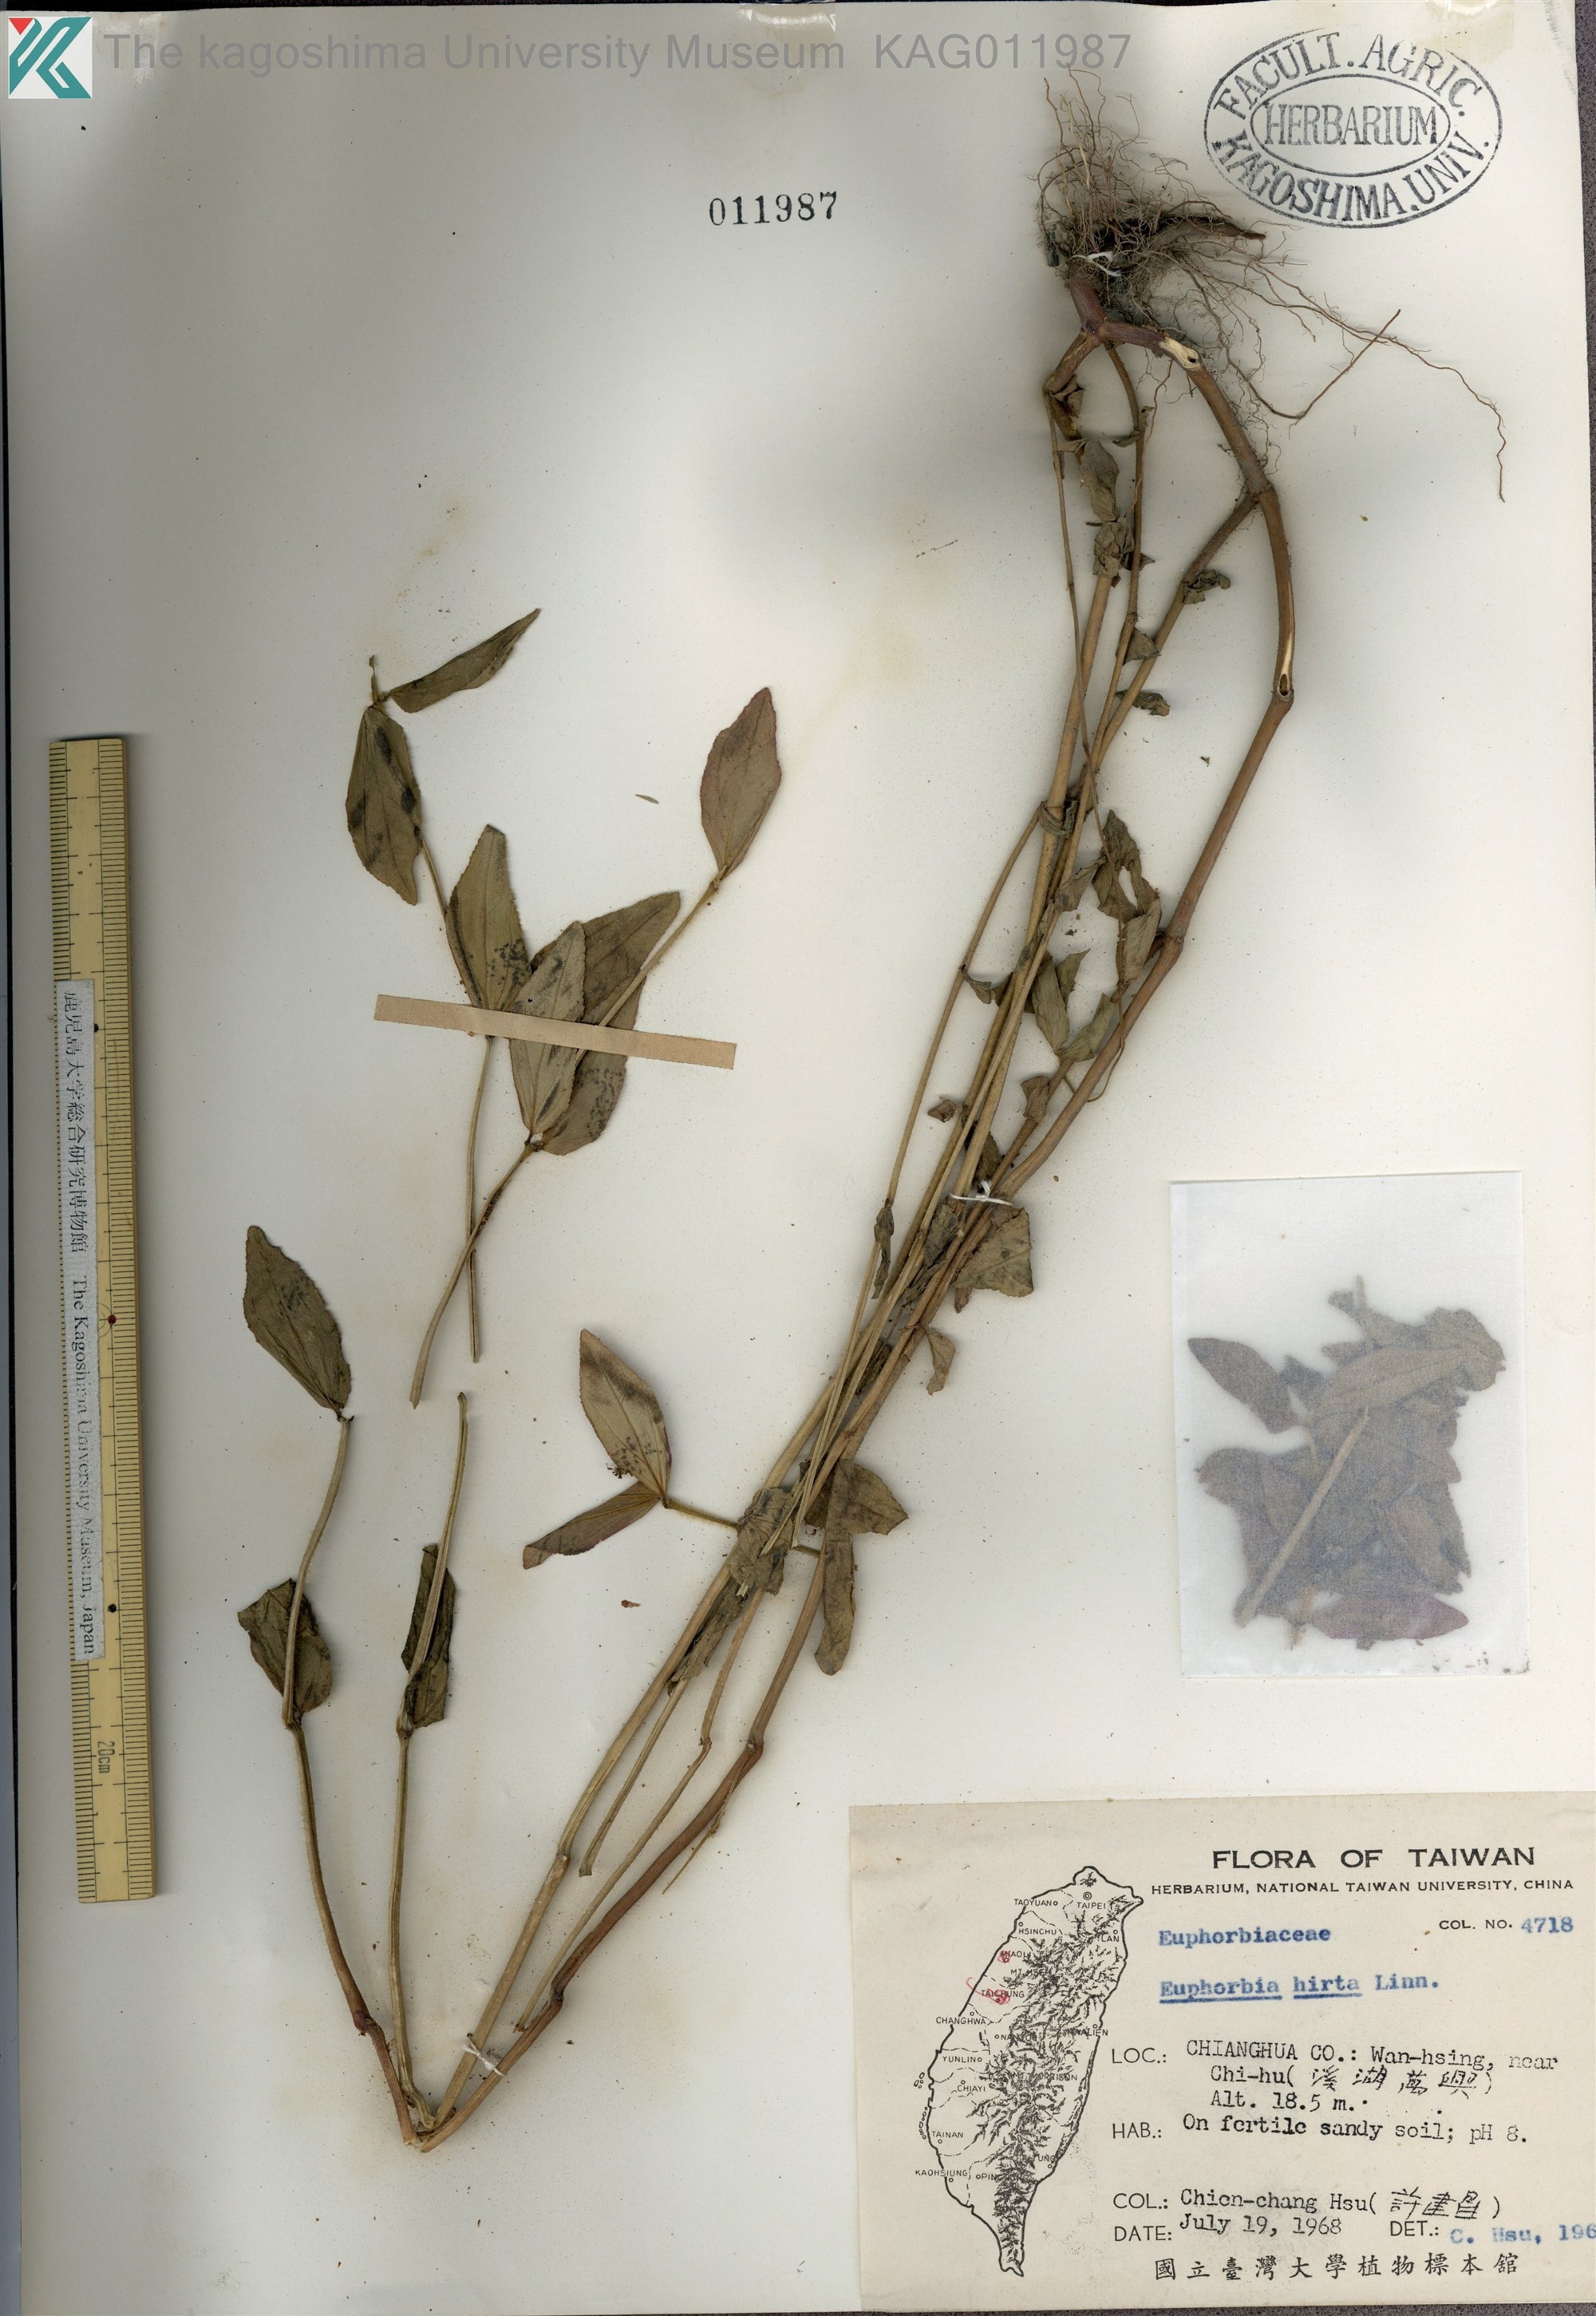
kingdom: Plantae
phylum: Tracheophyta
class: Magnoliopsida
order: Malpighiales
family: Euphorbiaceae
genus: Euphorbia
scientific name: Euphorbia hirta
